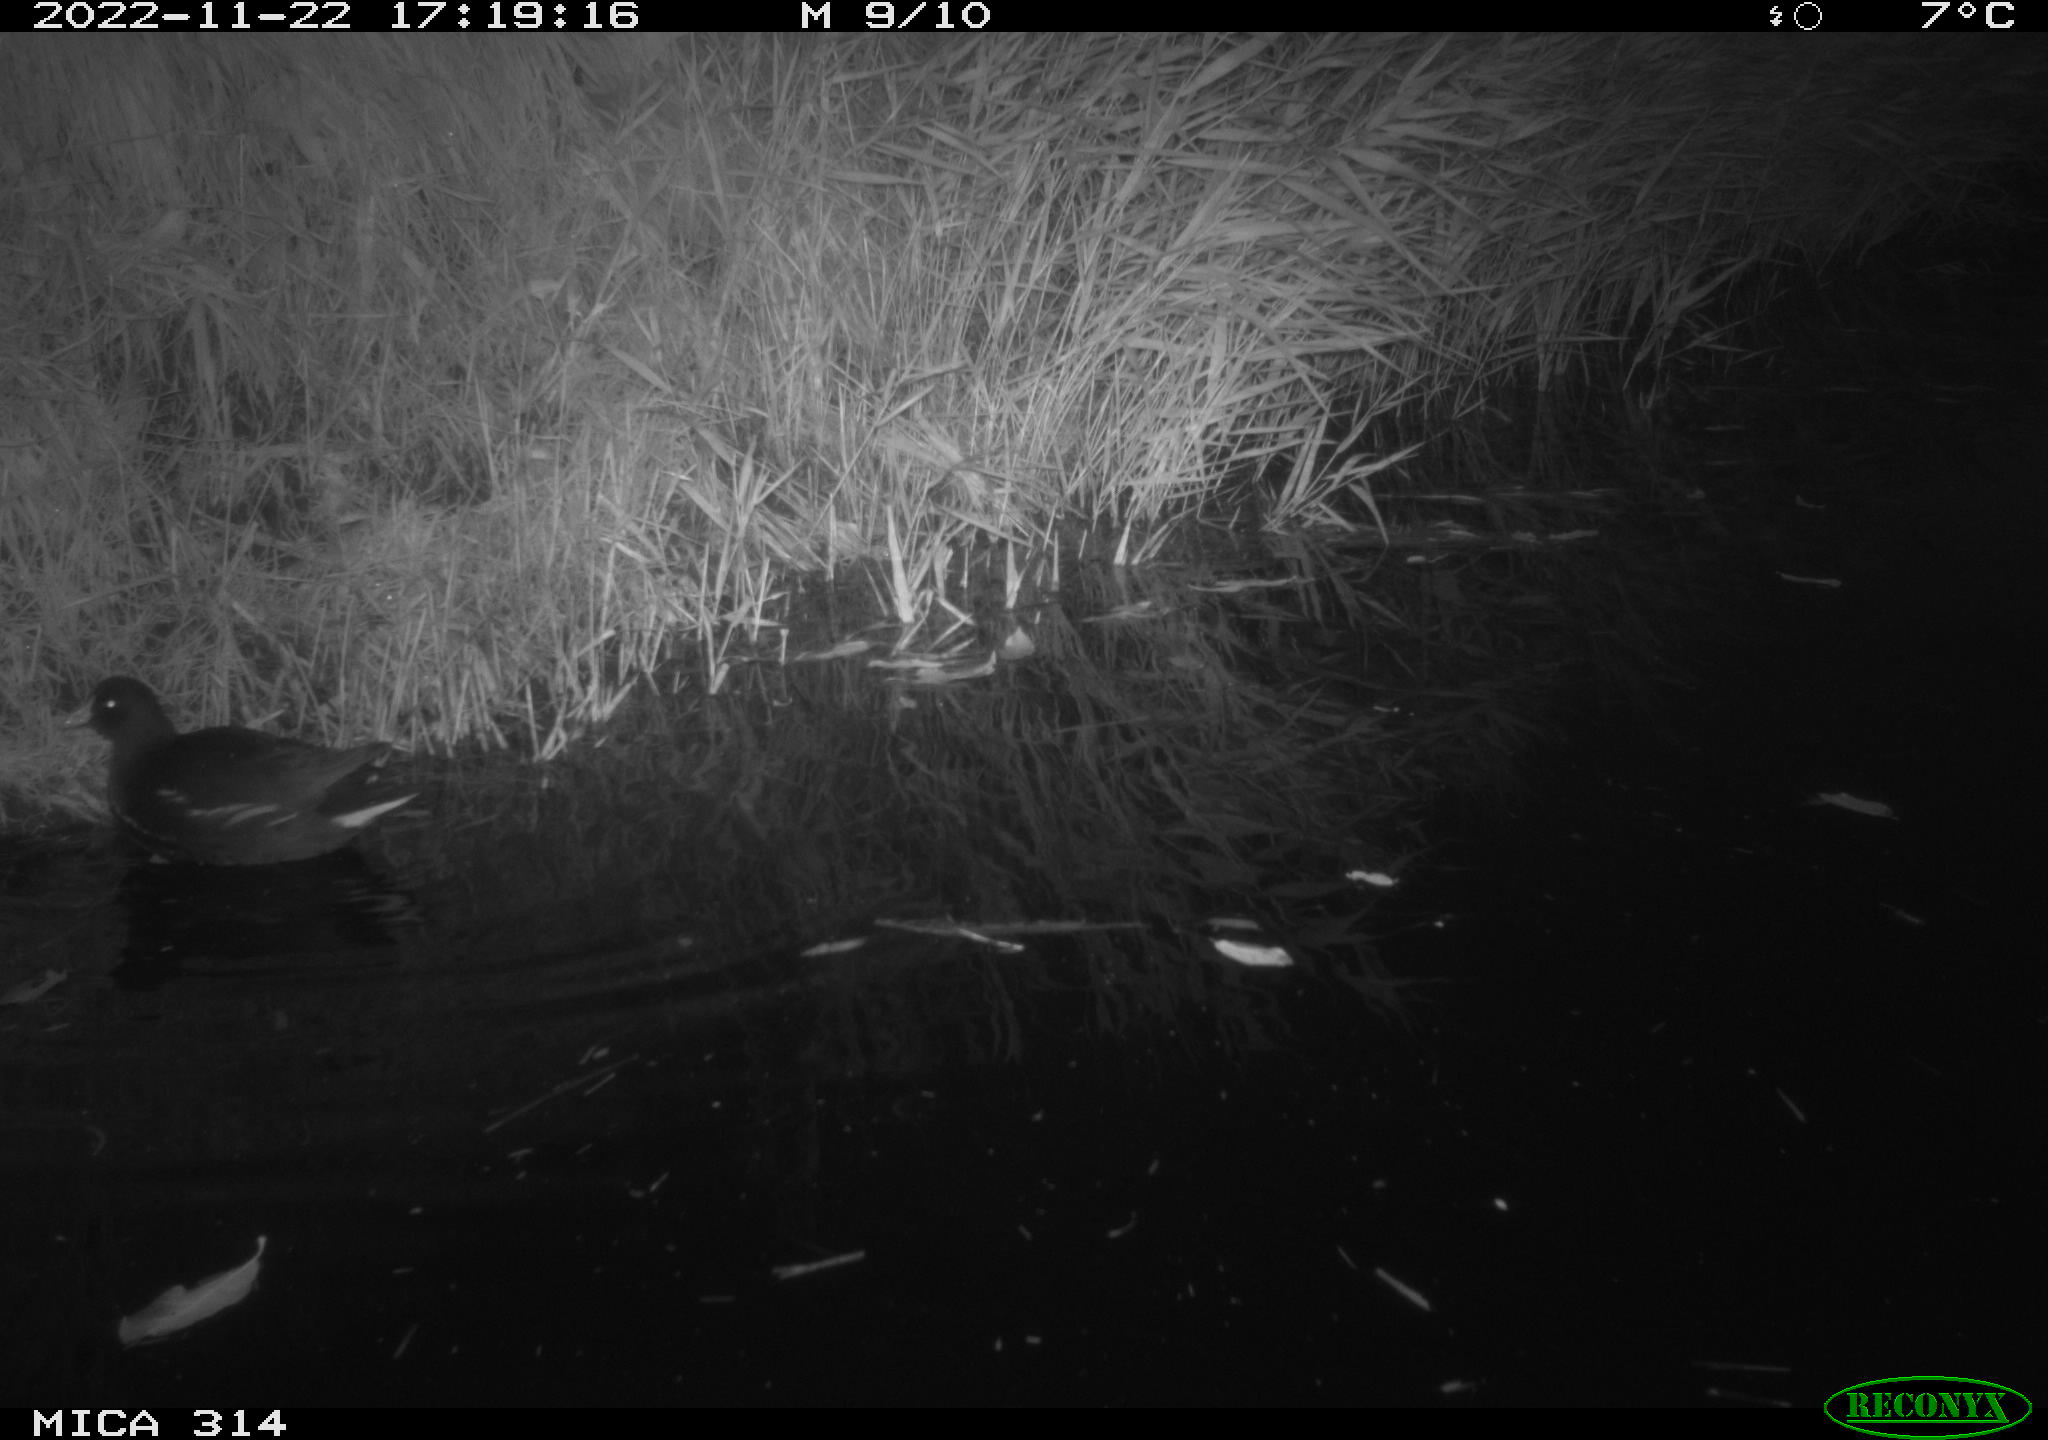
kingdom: Animalia
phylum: Chordata
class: Aves
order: Gruiformes
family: Rallidae
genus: Gallinula
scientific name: Gallinula chloropus
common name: Common moorhen
